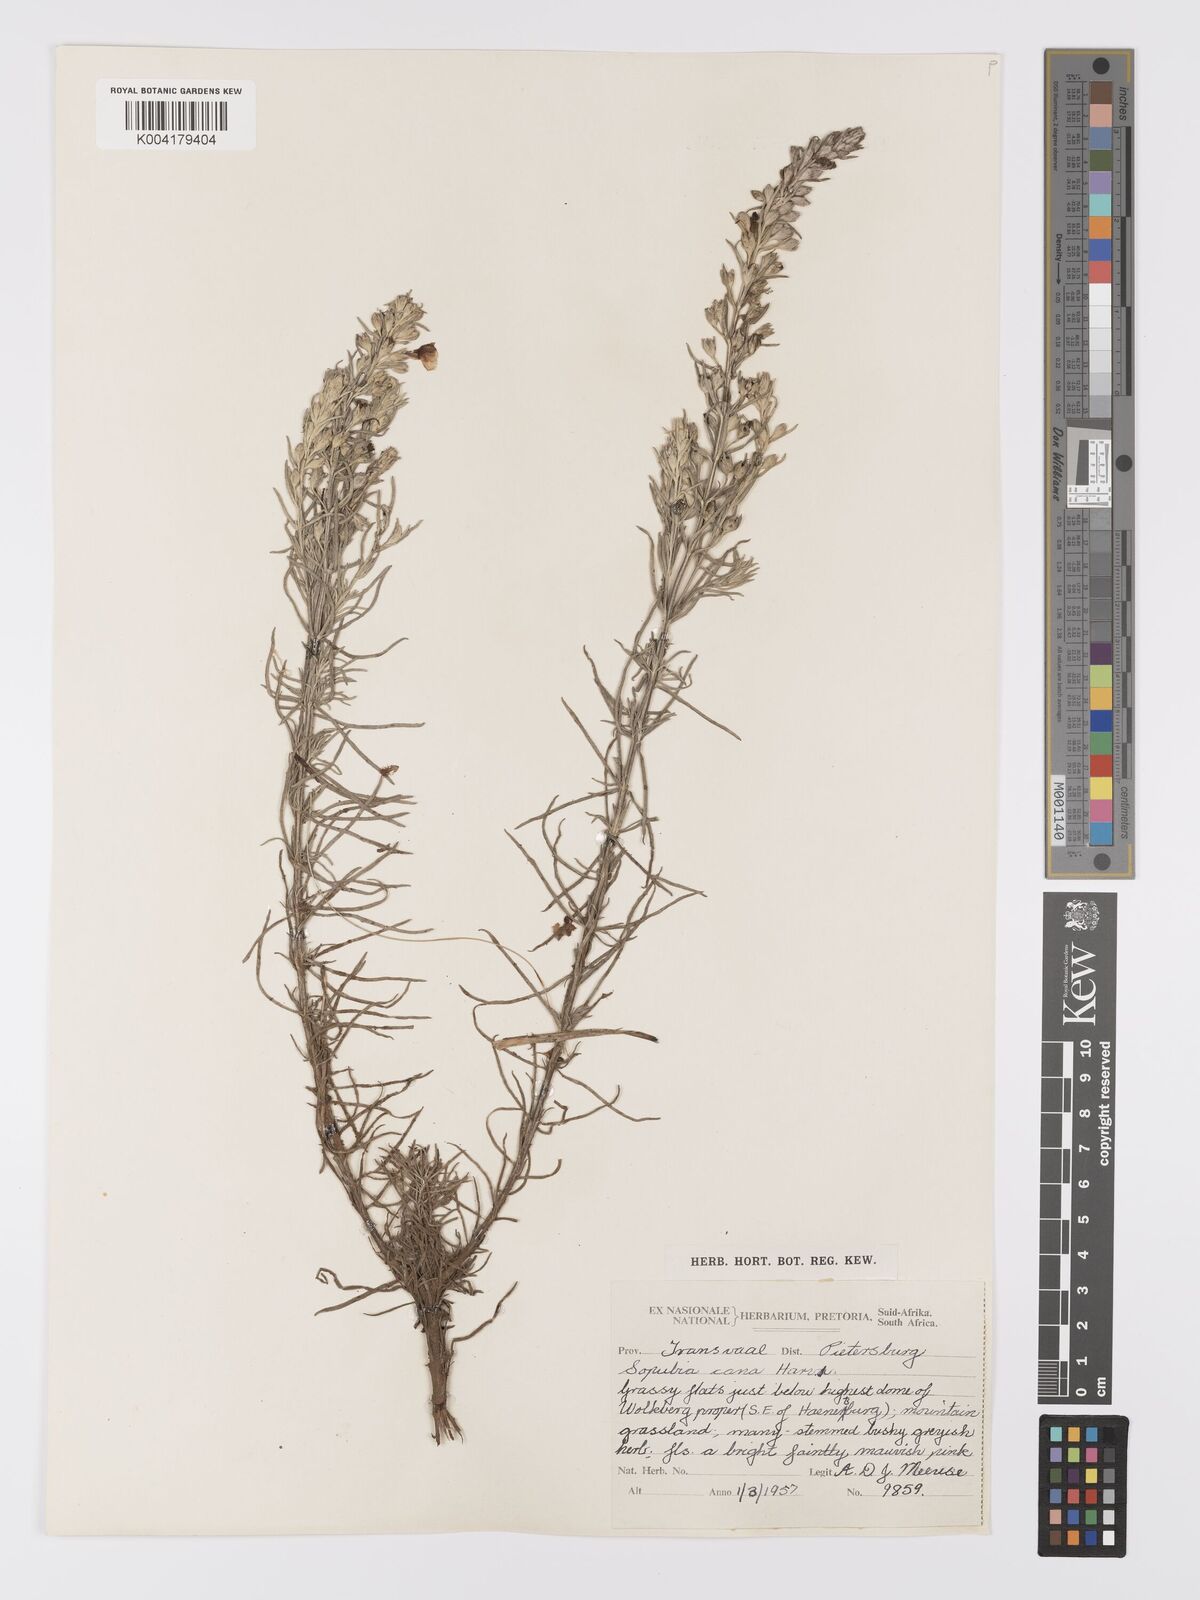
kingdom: Plantae
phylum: Tracheophyta
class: Magnoliopsida
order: Lamiales
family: Orobanchaceae
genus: Sopubia
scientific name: Sopubia cana
